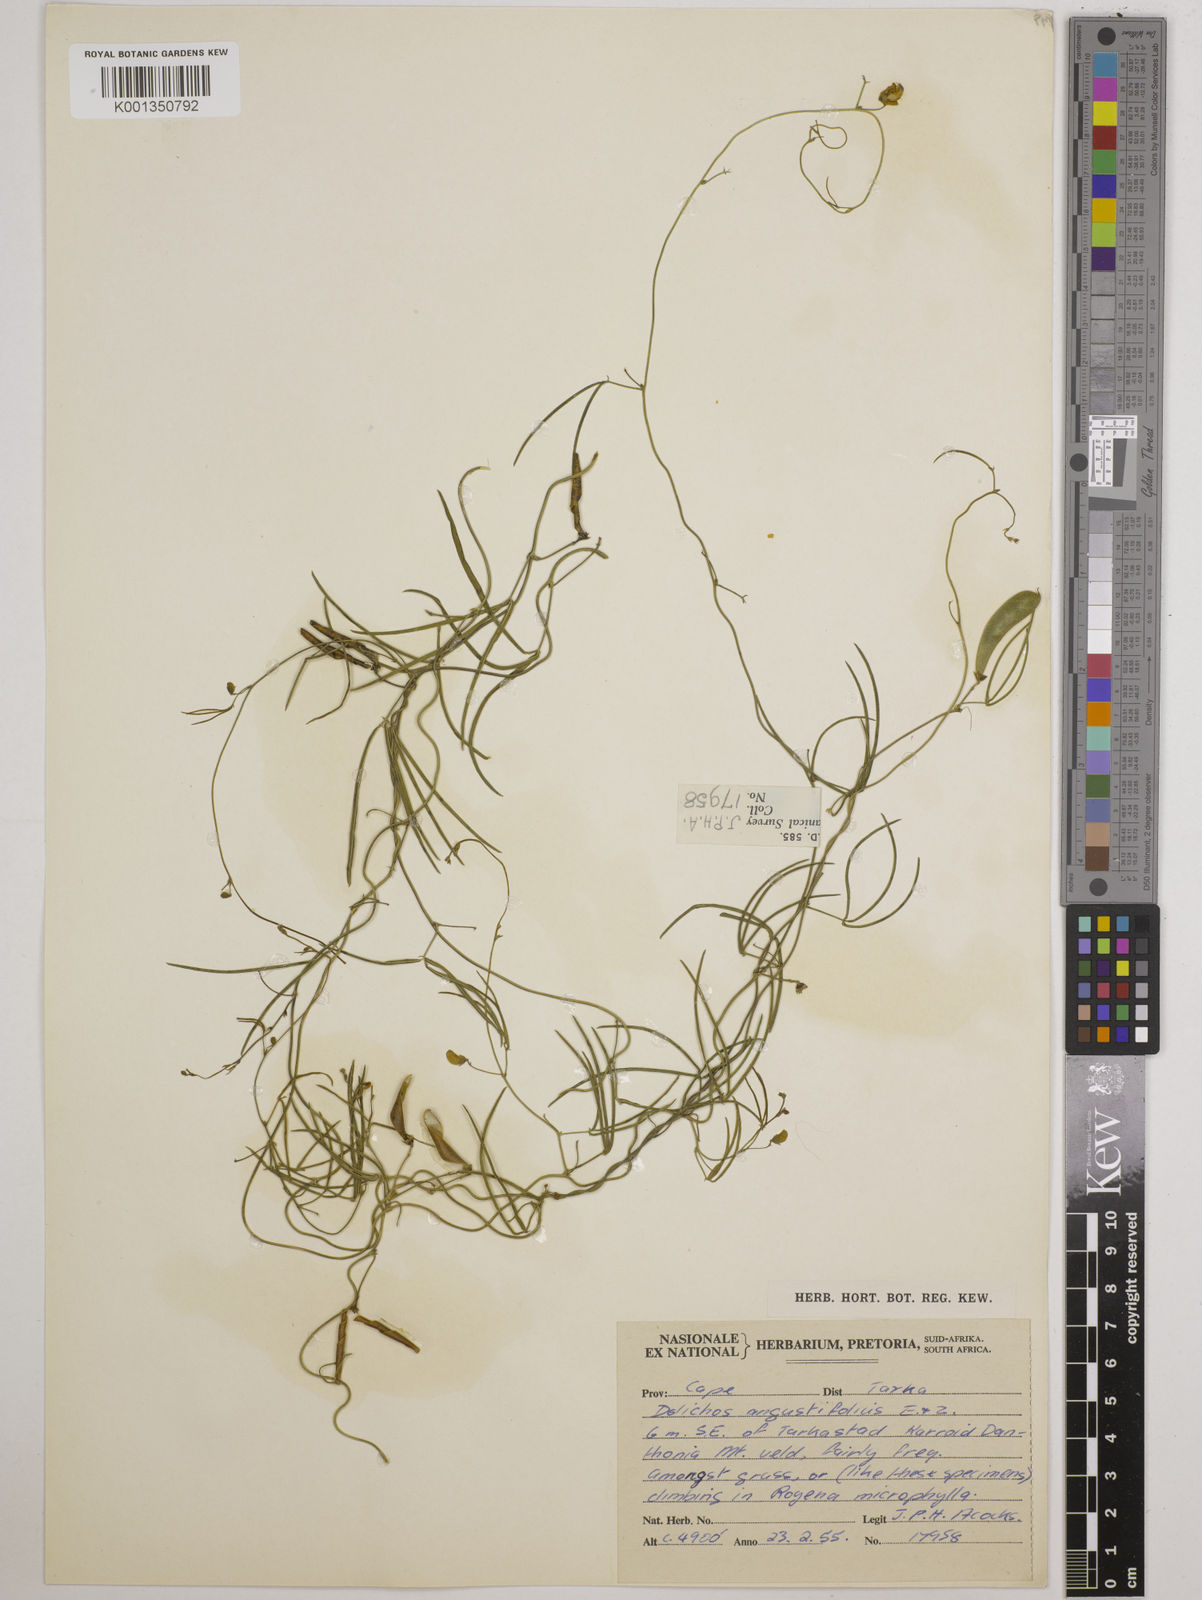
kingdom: Plantae
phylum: Tracheophyta
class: Magnoliopsida
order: Fabales
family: Fabaceae
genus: Dolichos
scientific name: Dolichos
